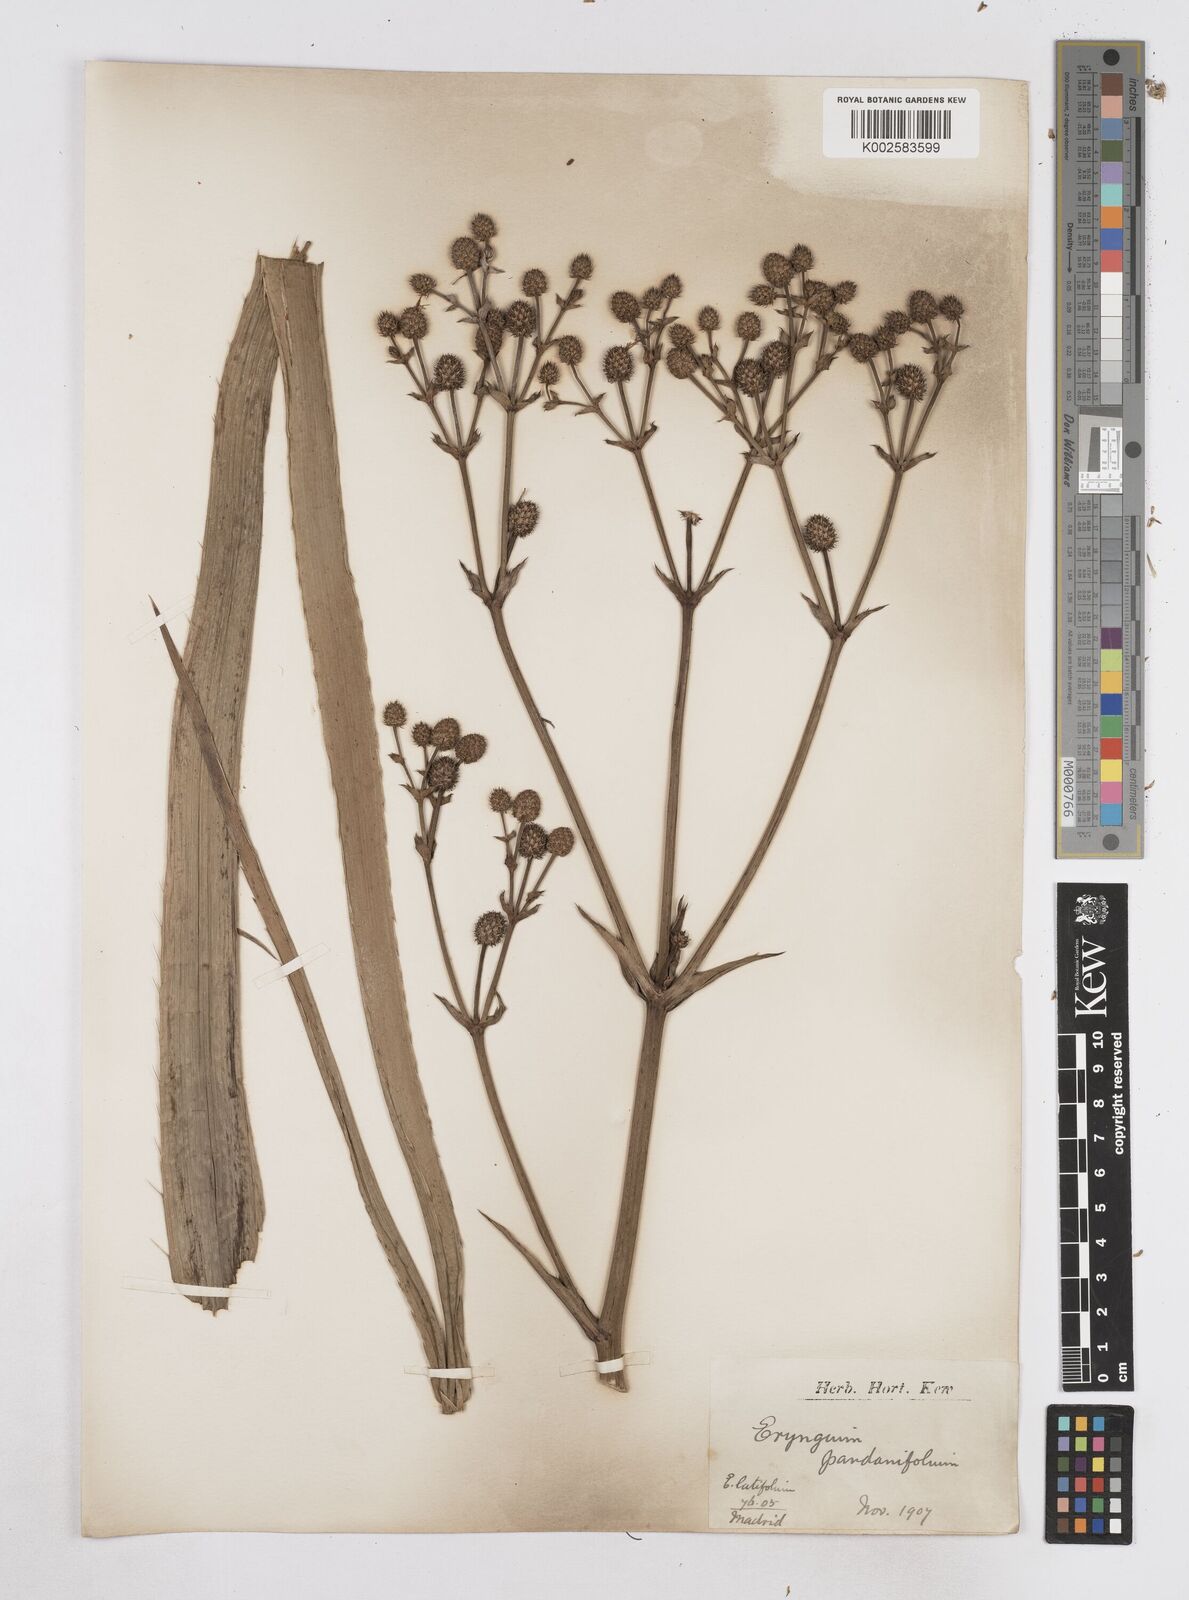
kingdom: Plantae
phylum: Tracheophyta
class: Magnoliopsida
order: Apiales
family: Apiaceae
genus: Eryngium
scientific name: Eryngium pandanifolium
